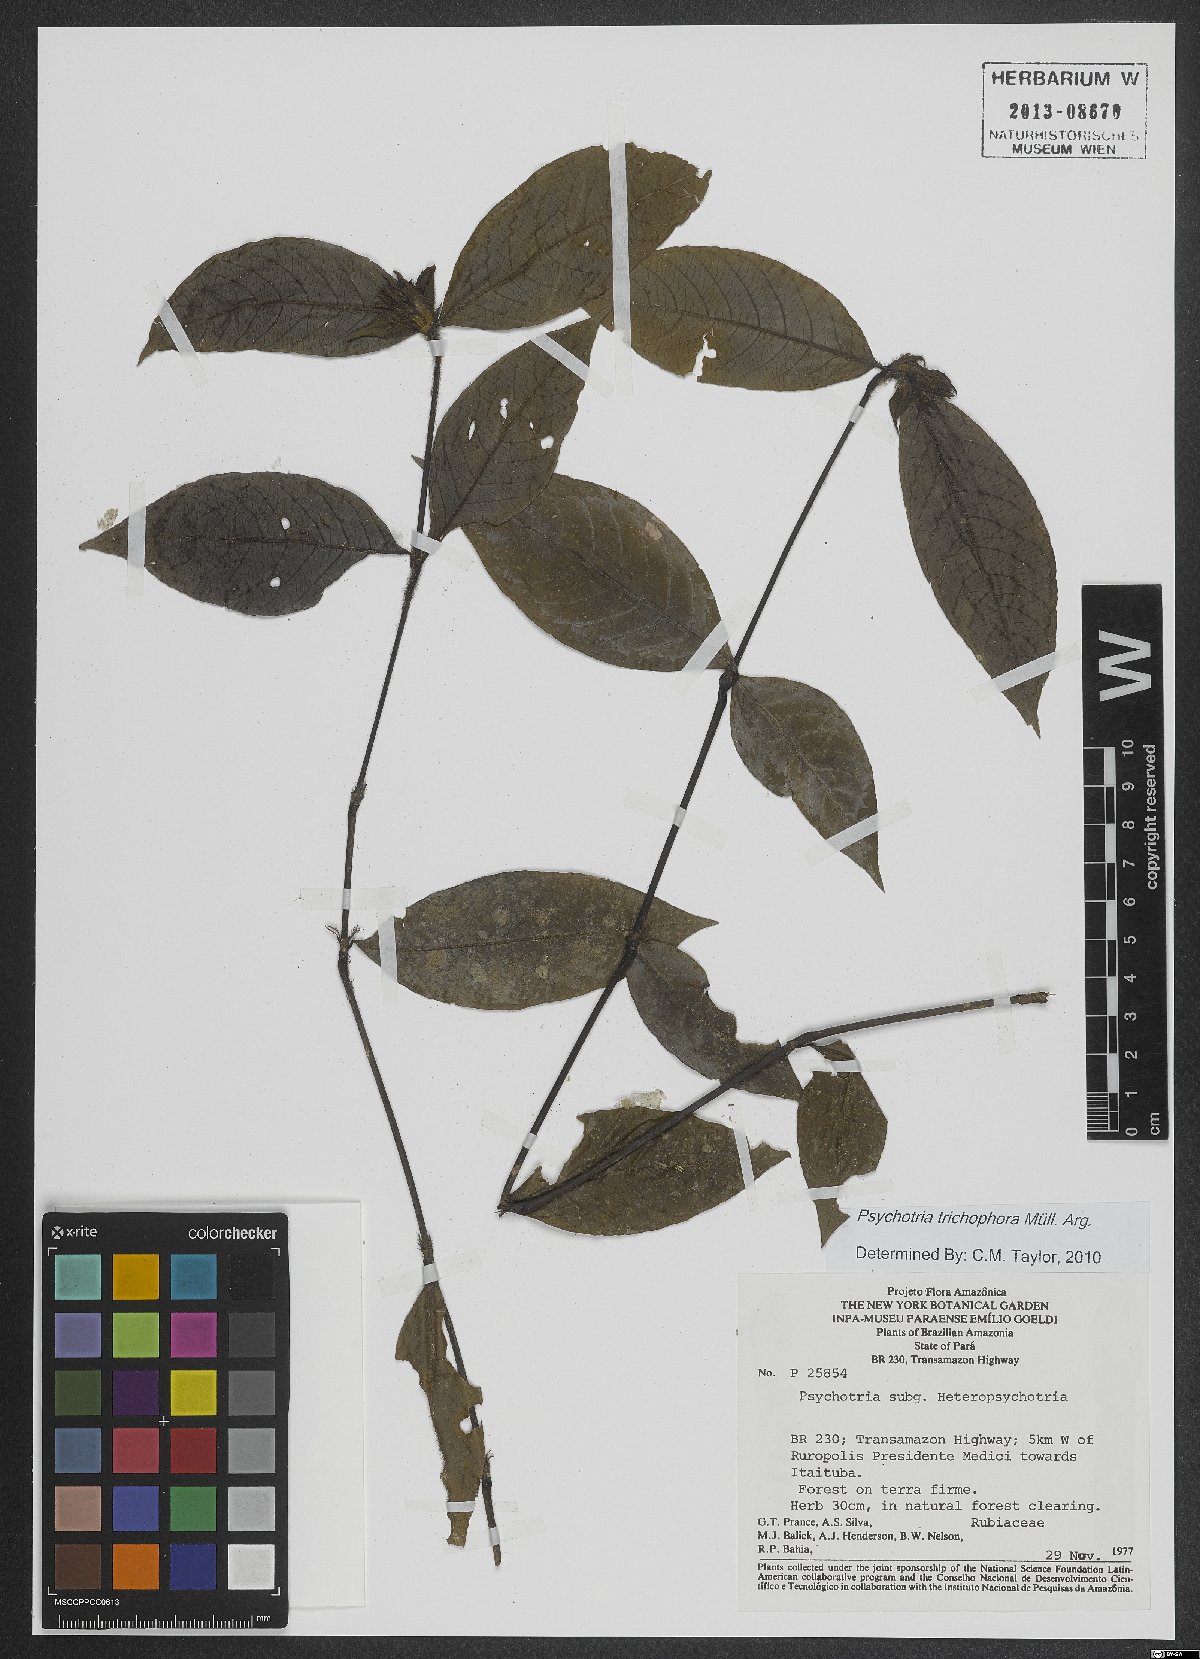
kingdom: Plantae
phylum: Tracheophyta
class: Magnoliopsida
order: Gentianales
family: Rubiaceae
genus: Palicourea
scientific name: Palicourea trichophora
